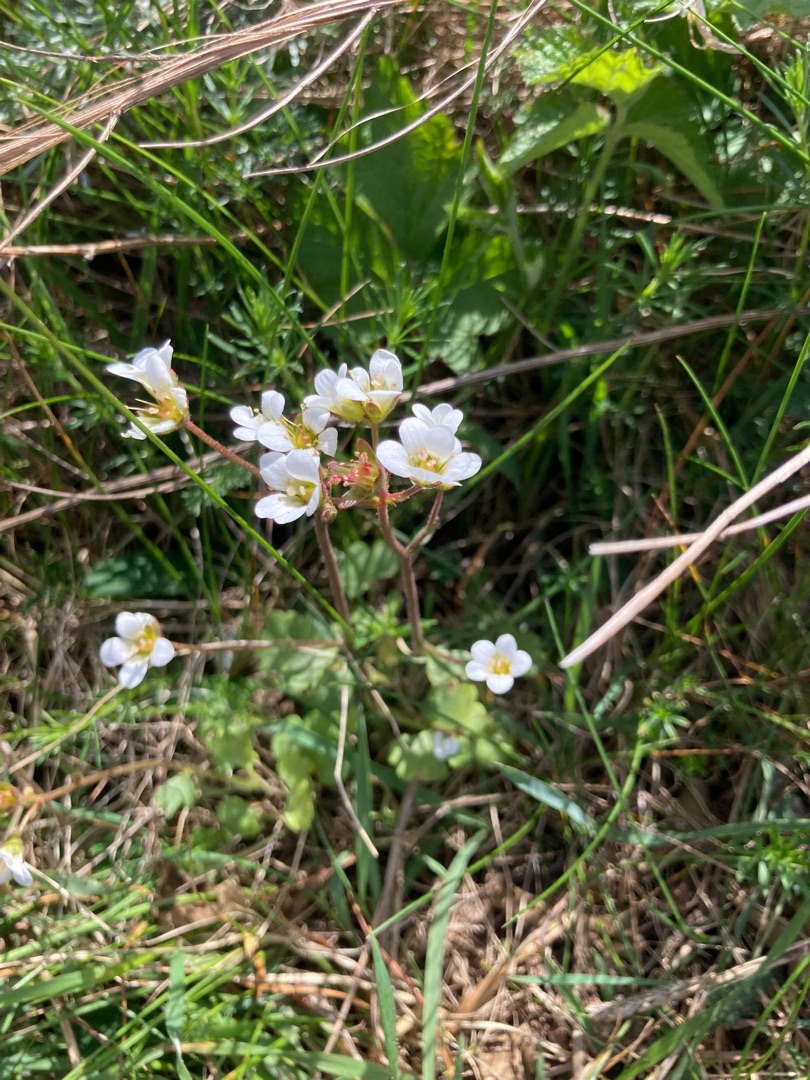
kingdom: Plantae
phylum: Tracheophyta
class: Magnoliopsida
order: Saxifragales
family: Saxifragaceae
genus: Saxifraga
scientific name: Saxifraga granulata
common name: Kornet stenbræk
